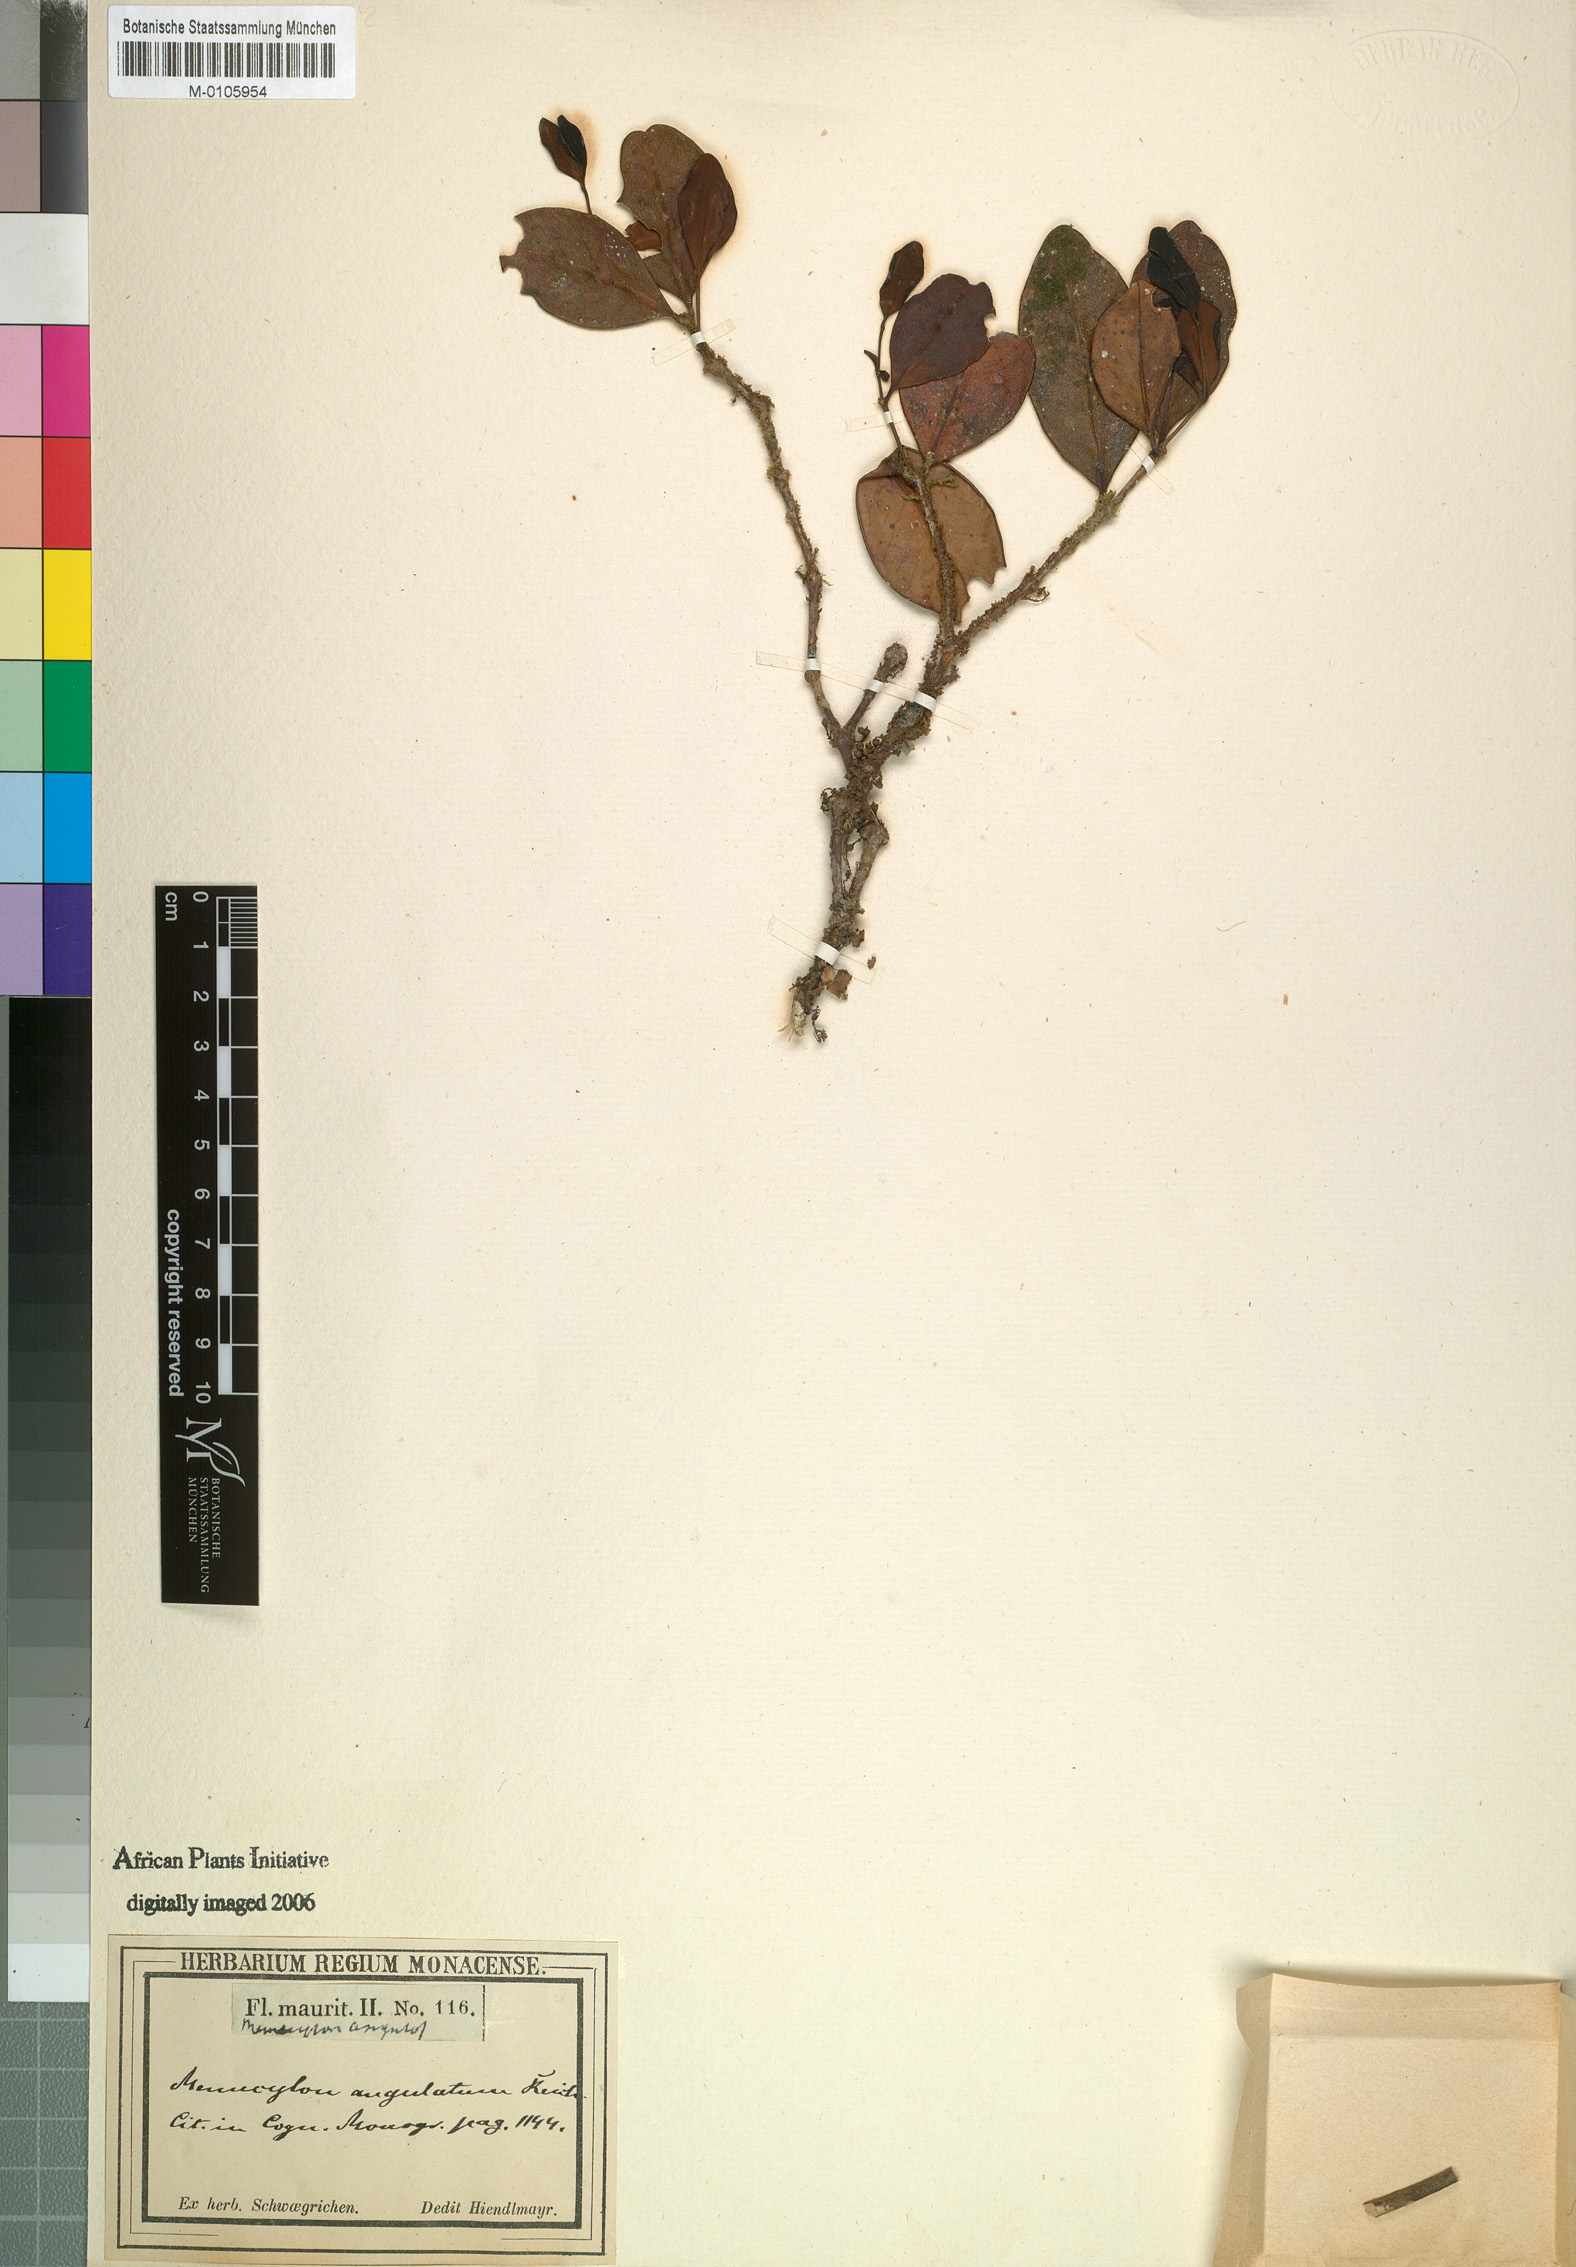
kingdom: Plantae
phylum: Tracheophyta
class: Magnoliopsida
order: Myrtales
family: Melastomataceae
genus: Memecylon
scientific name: Memecylon ovatifolium
